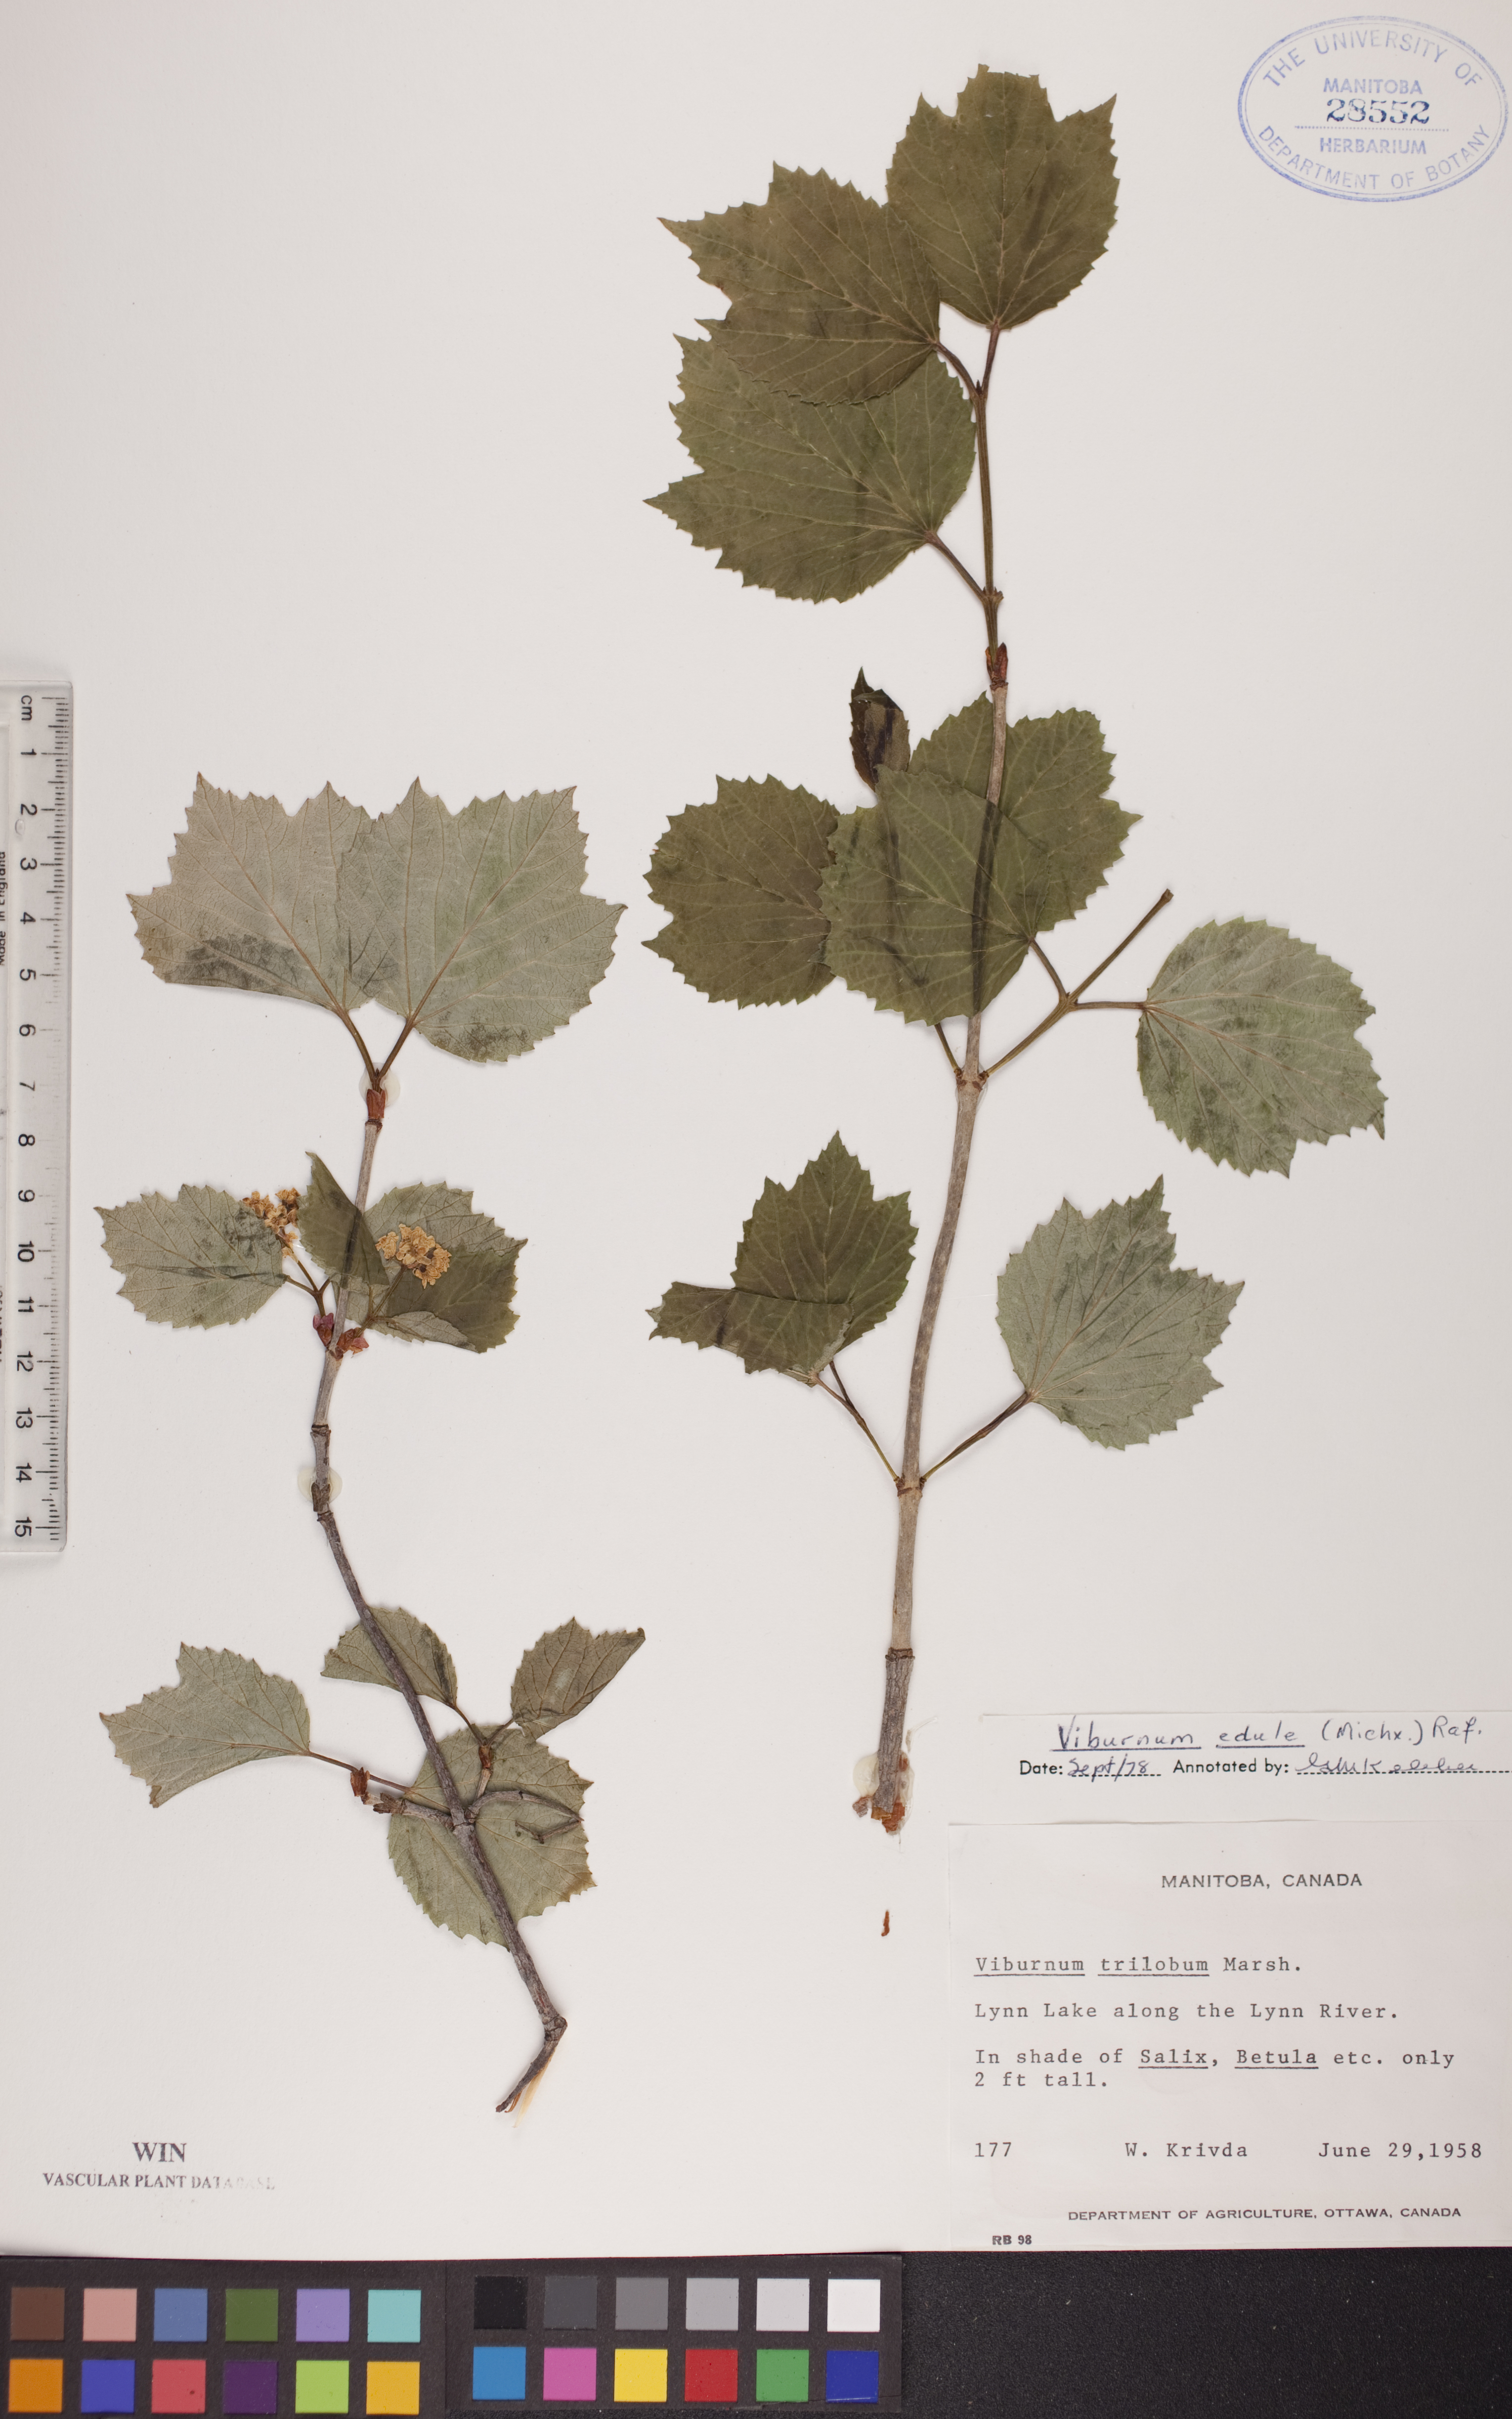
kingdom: Plantae
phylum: Tracheophyta
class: Magnoliopsida
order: Dipsacales
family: Viburnaceae
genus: Viburnum
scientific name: Viburnum edule
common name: Mooseberry
